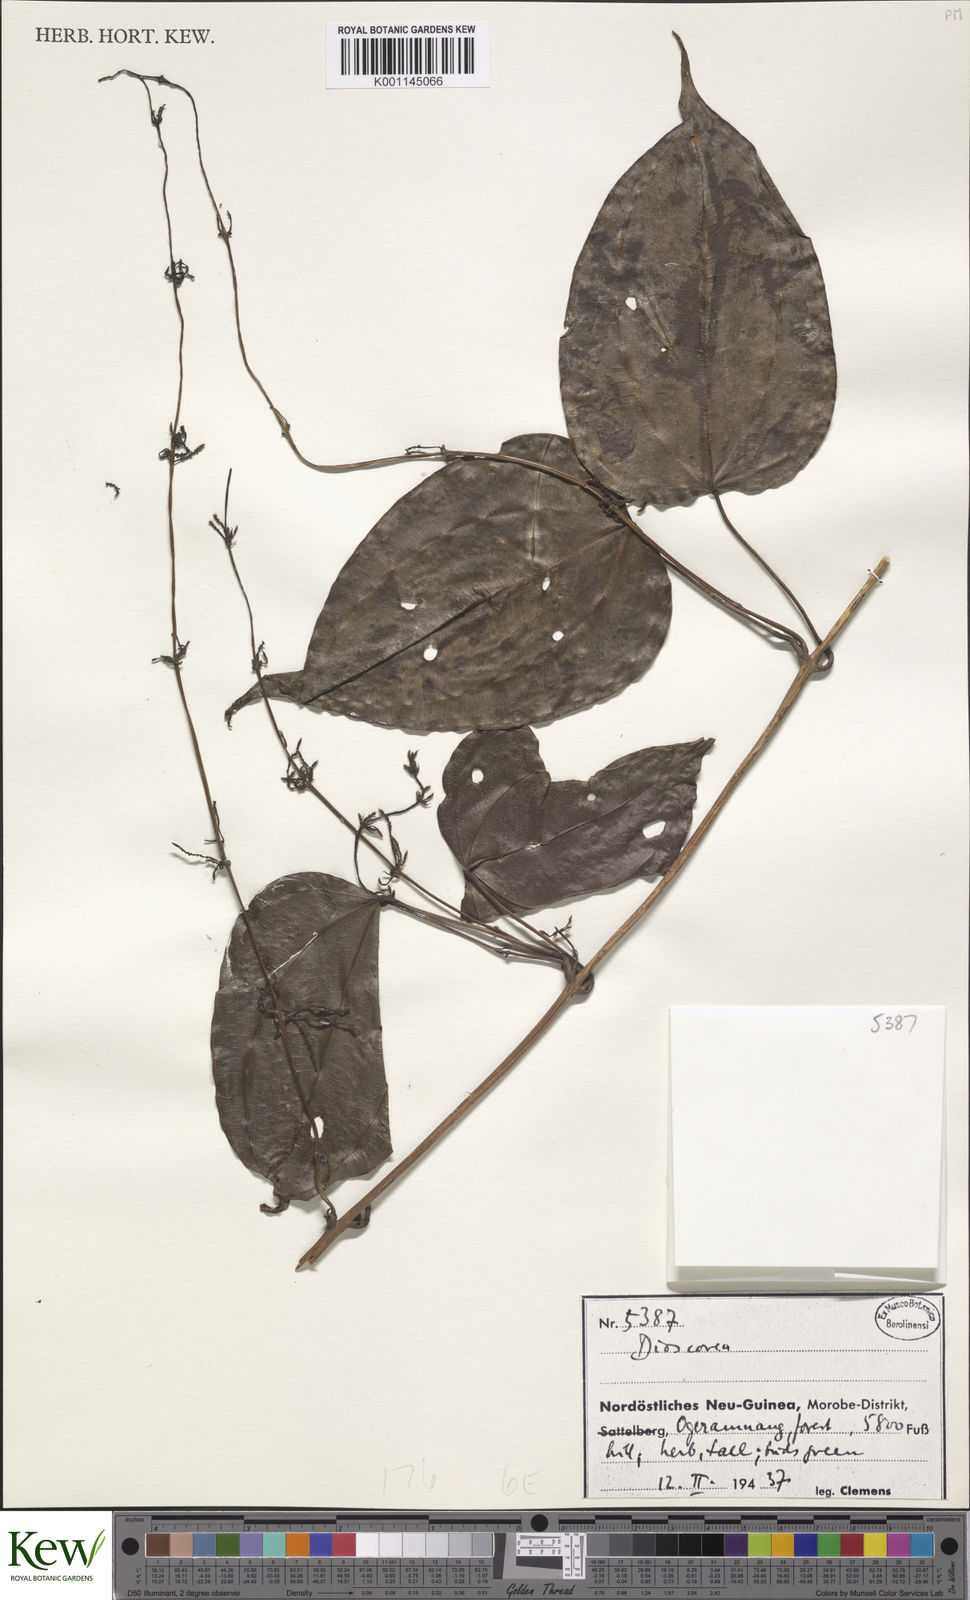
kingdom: Plantae
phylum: Tracheophyta
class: Liliopsida
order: Dioscoreales
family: Dioscoreaceae
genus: Dioscorea
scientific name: Dioscorea
